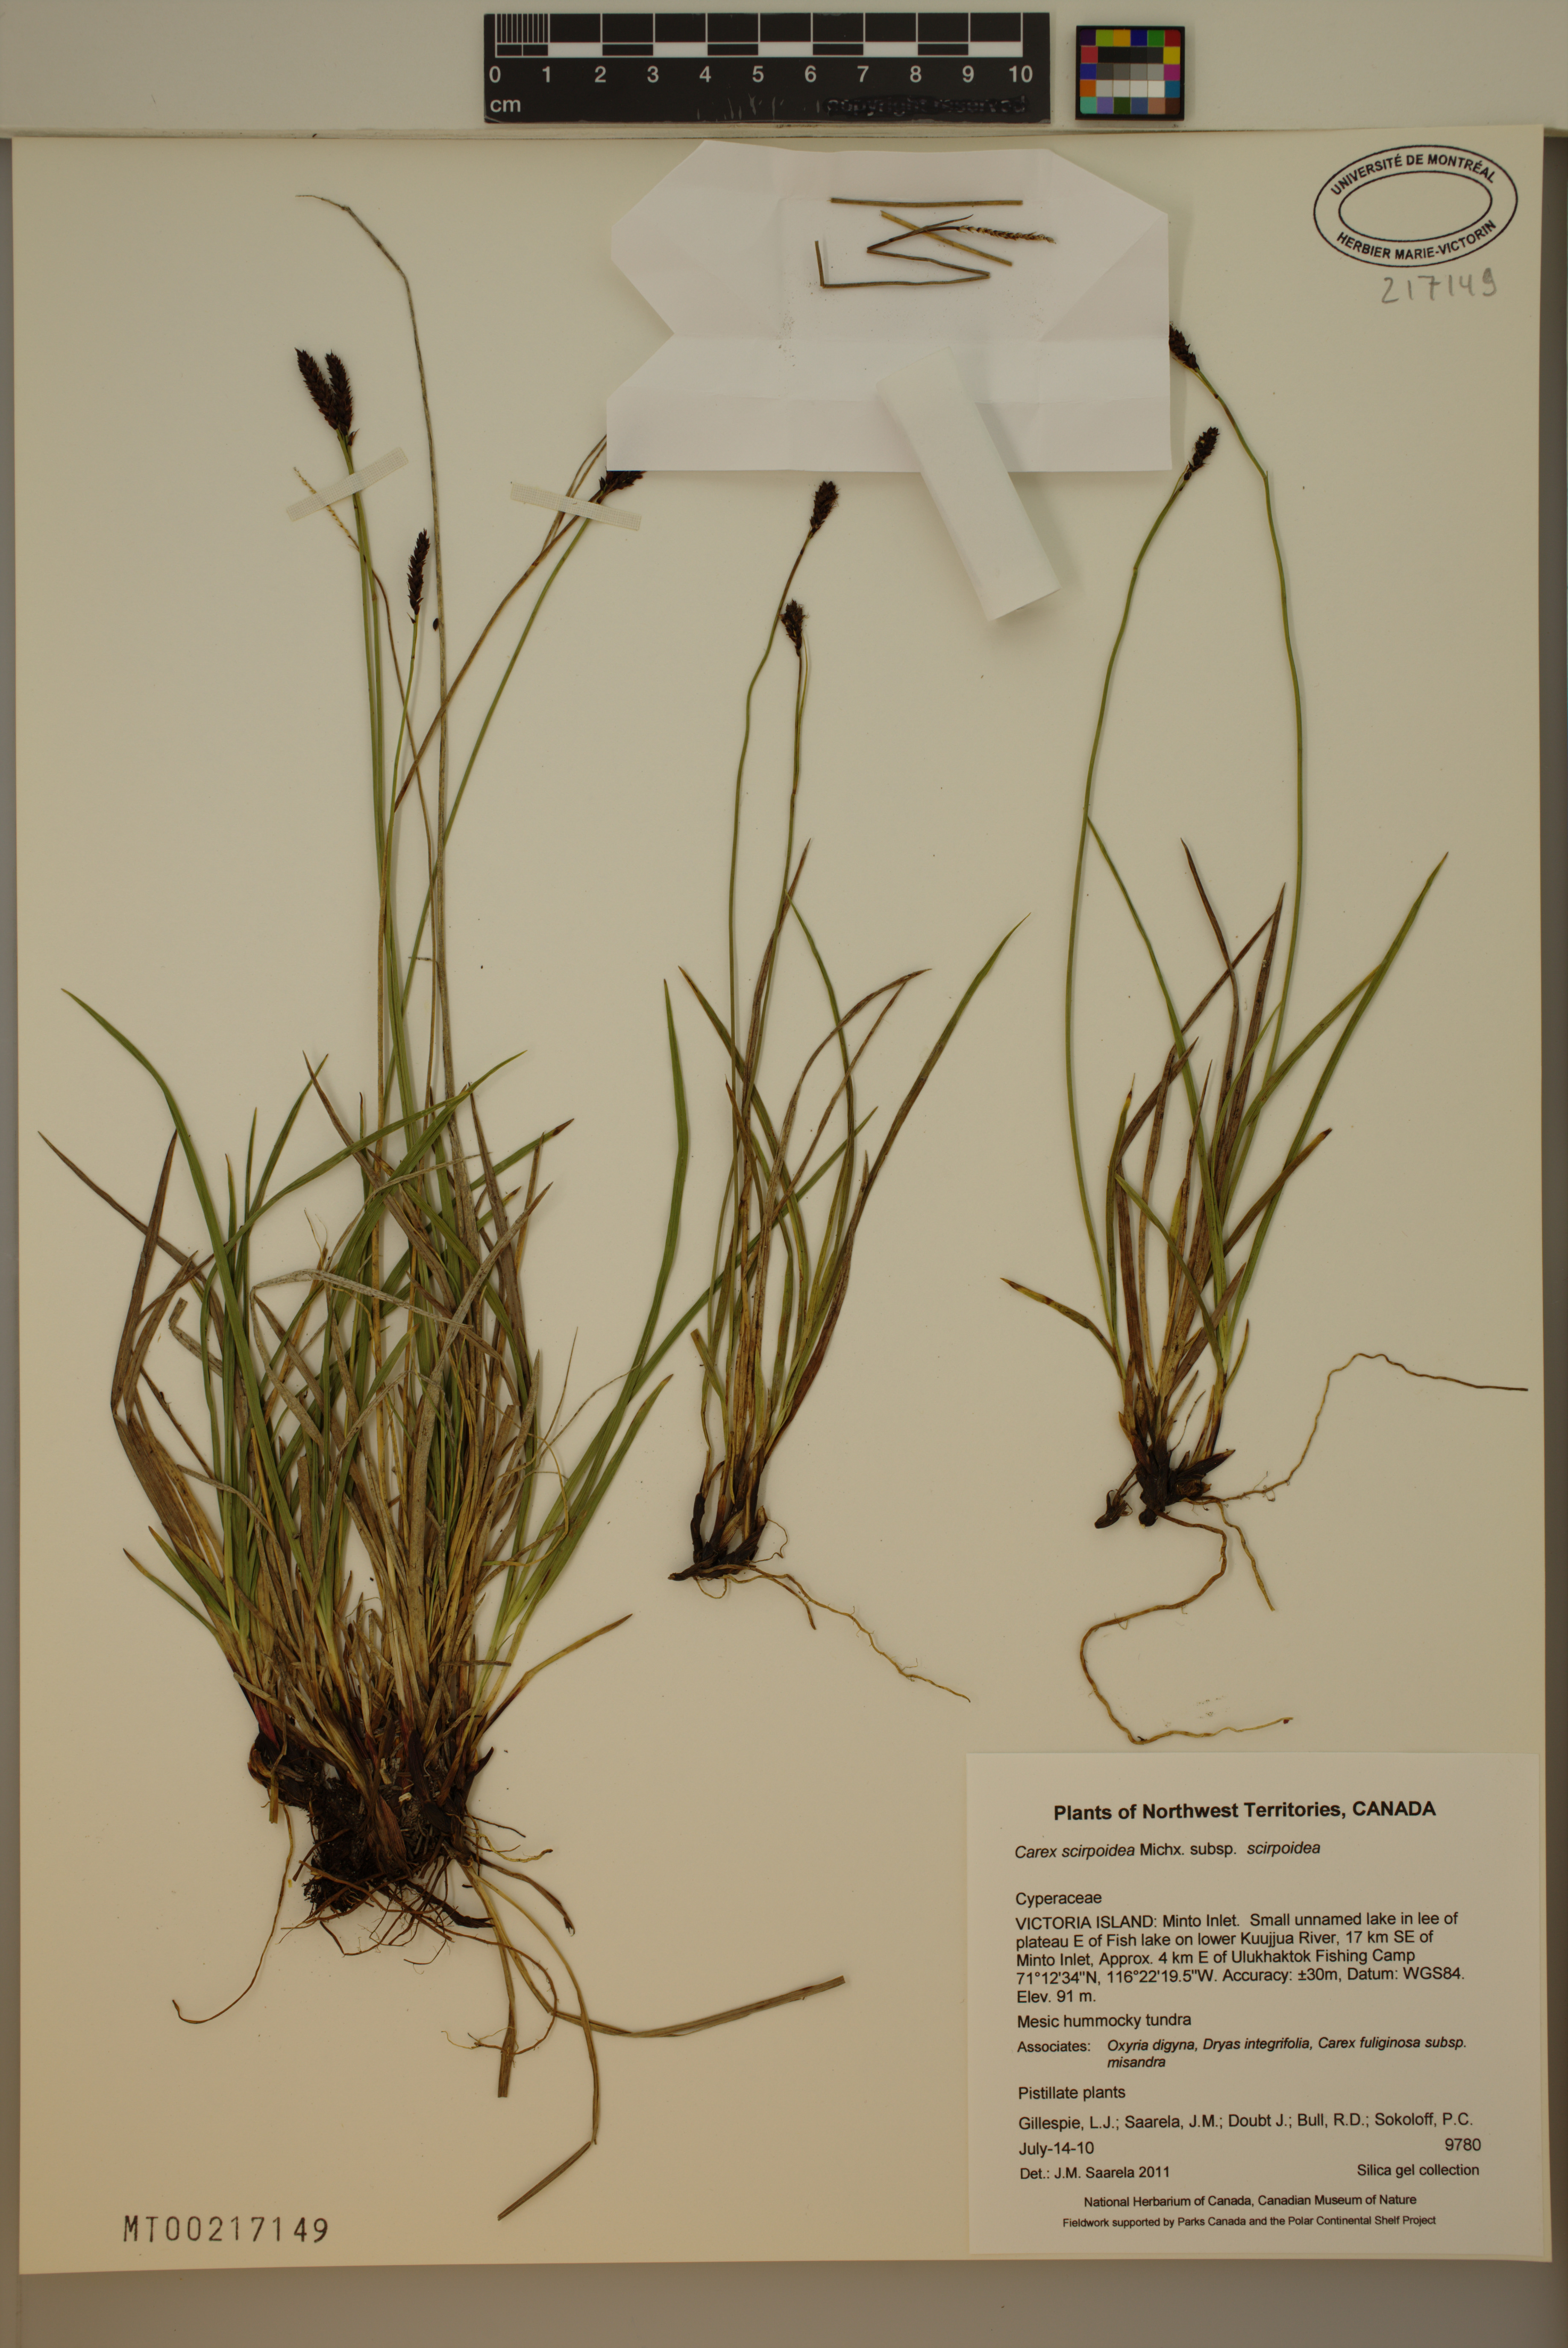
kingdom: Plantae
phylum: Tracheophyta
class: Liliopsida
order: Poales
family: Cyperaceae
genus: Carex
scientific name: Carex scirpoidea
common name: Canada single-spike sedge
